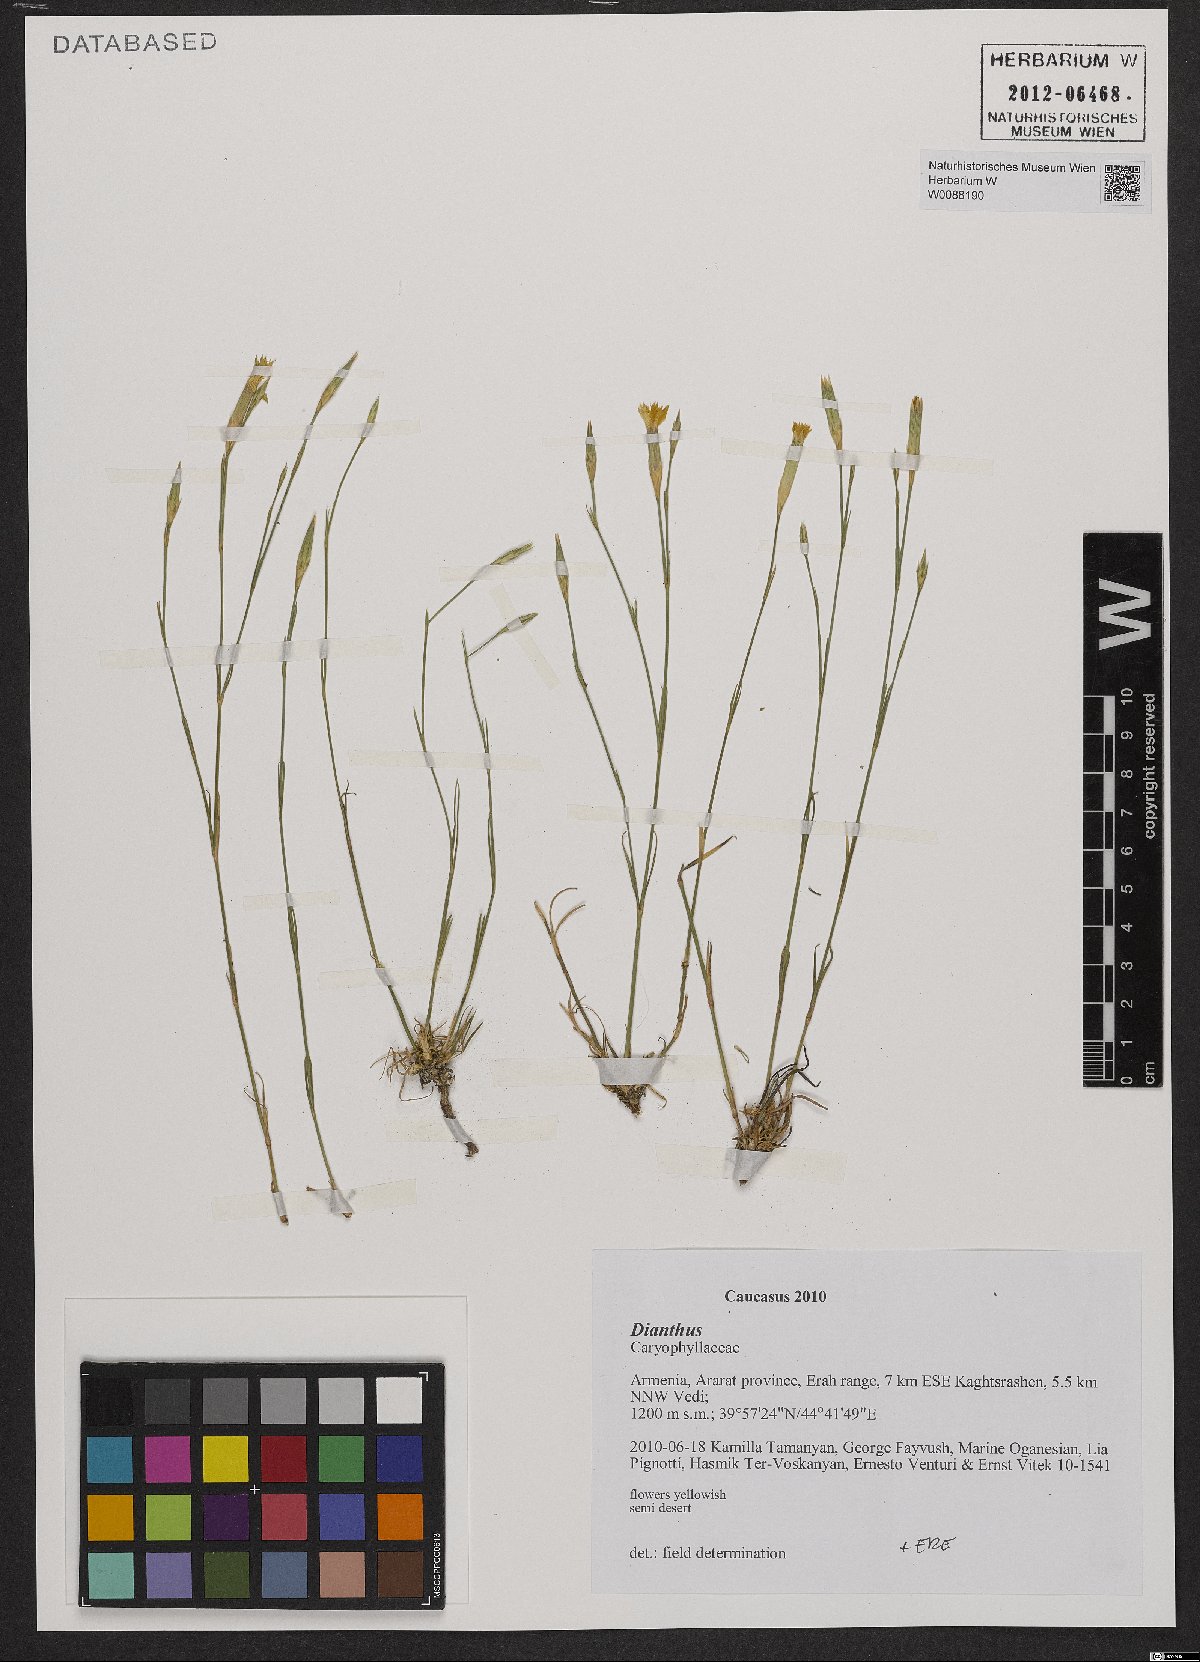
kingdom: Plantae
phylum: Tracheophyta
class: Magnoliopsida
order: Caryophyllales
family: Caryophyllaceae
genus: Dianthus
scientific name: Dianthus
